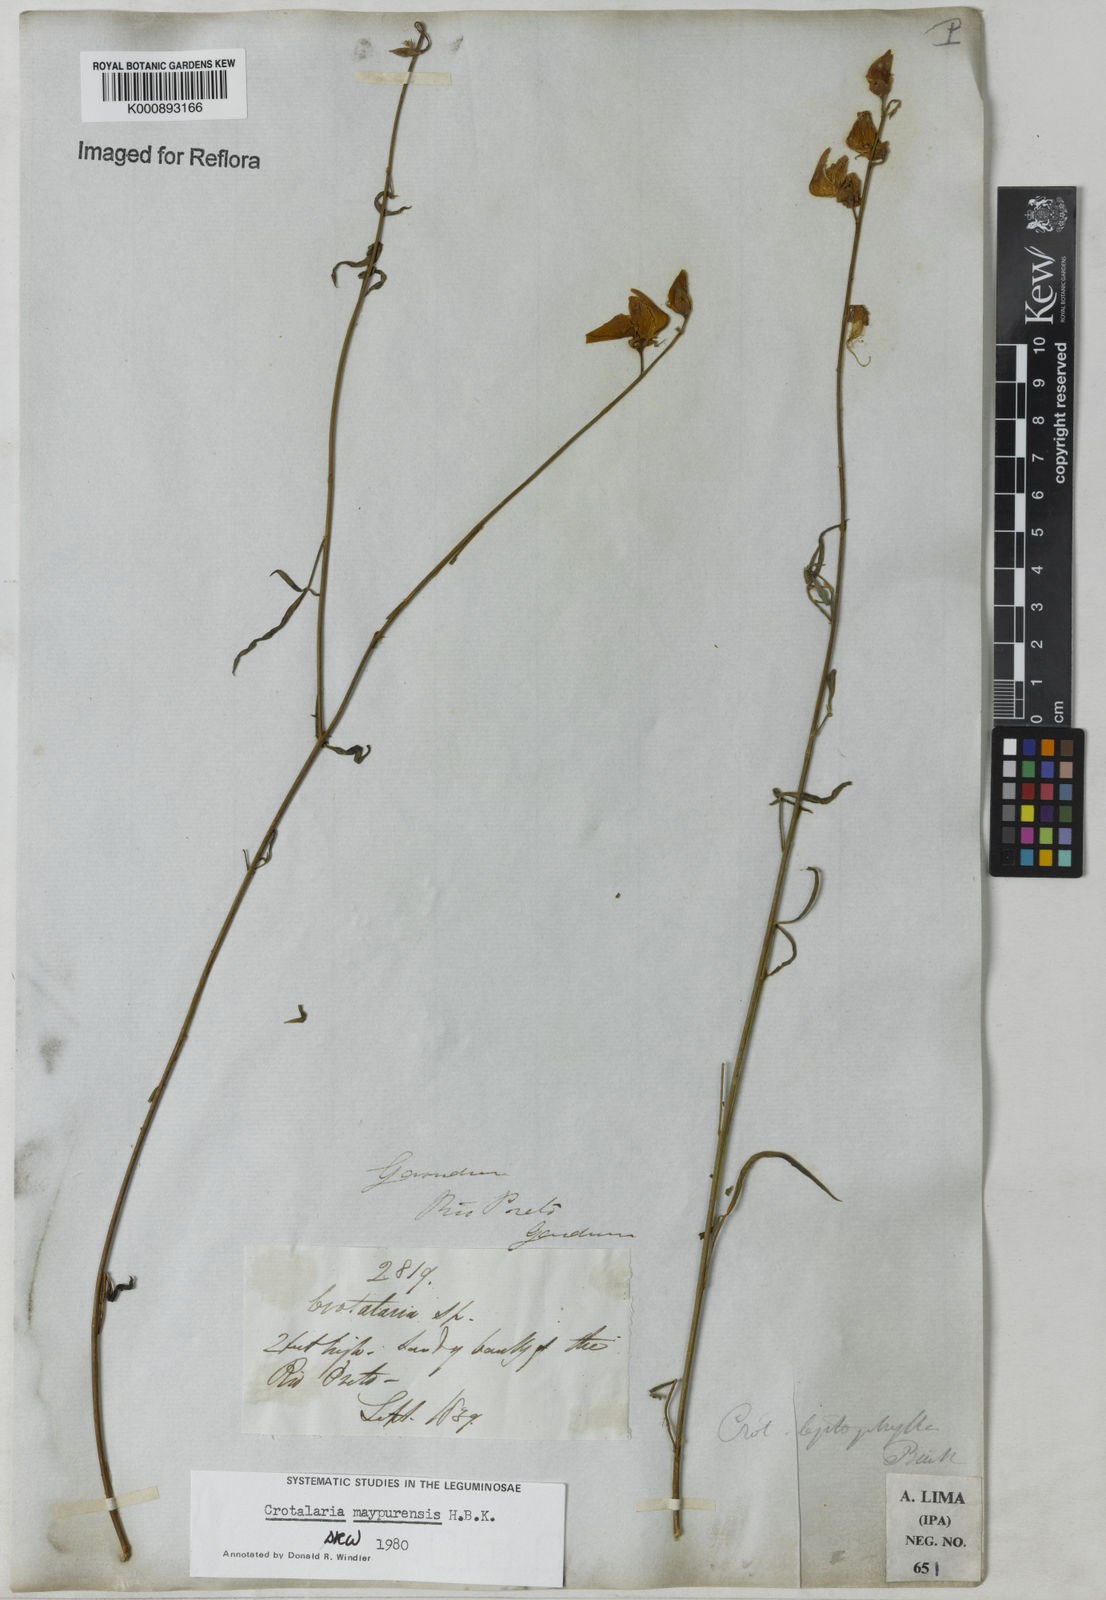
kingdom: Plantae
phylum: Tracheophyta
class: Magnoliopsida
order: Fabales
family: Fabaceae
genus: Crotalaria
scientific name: Crotalaria maypurensis
